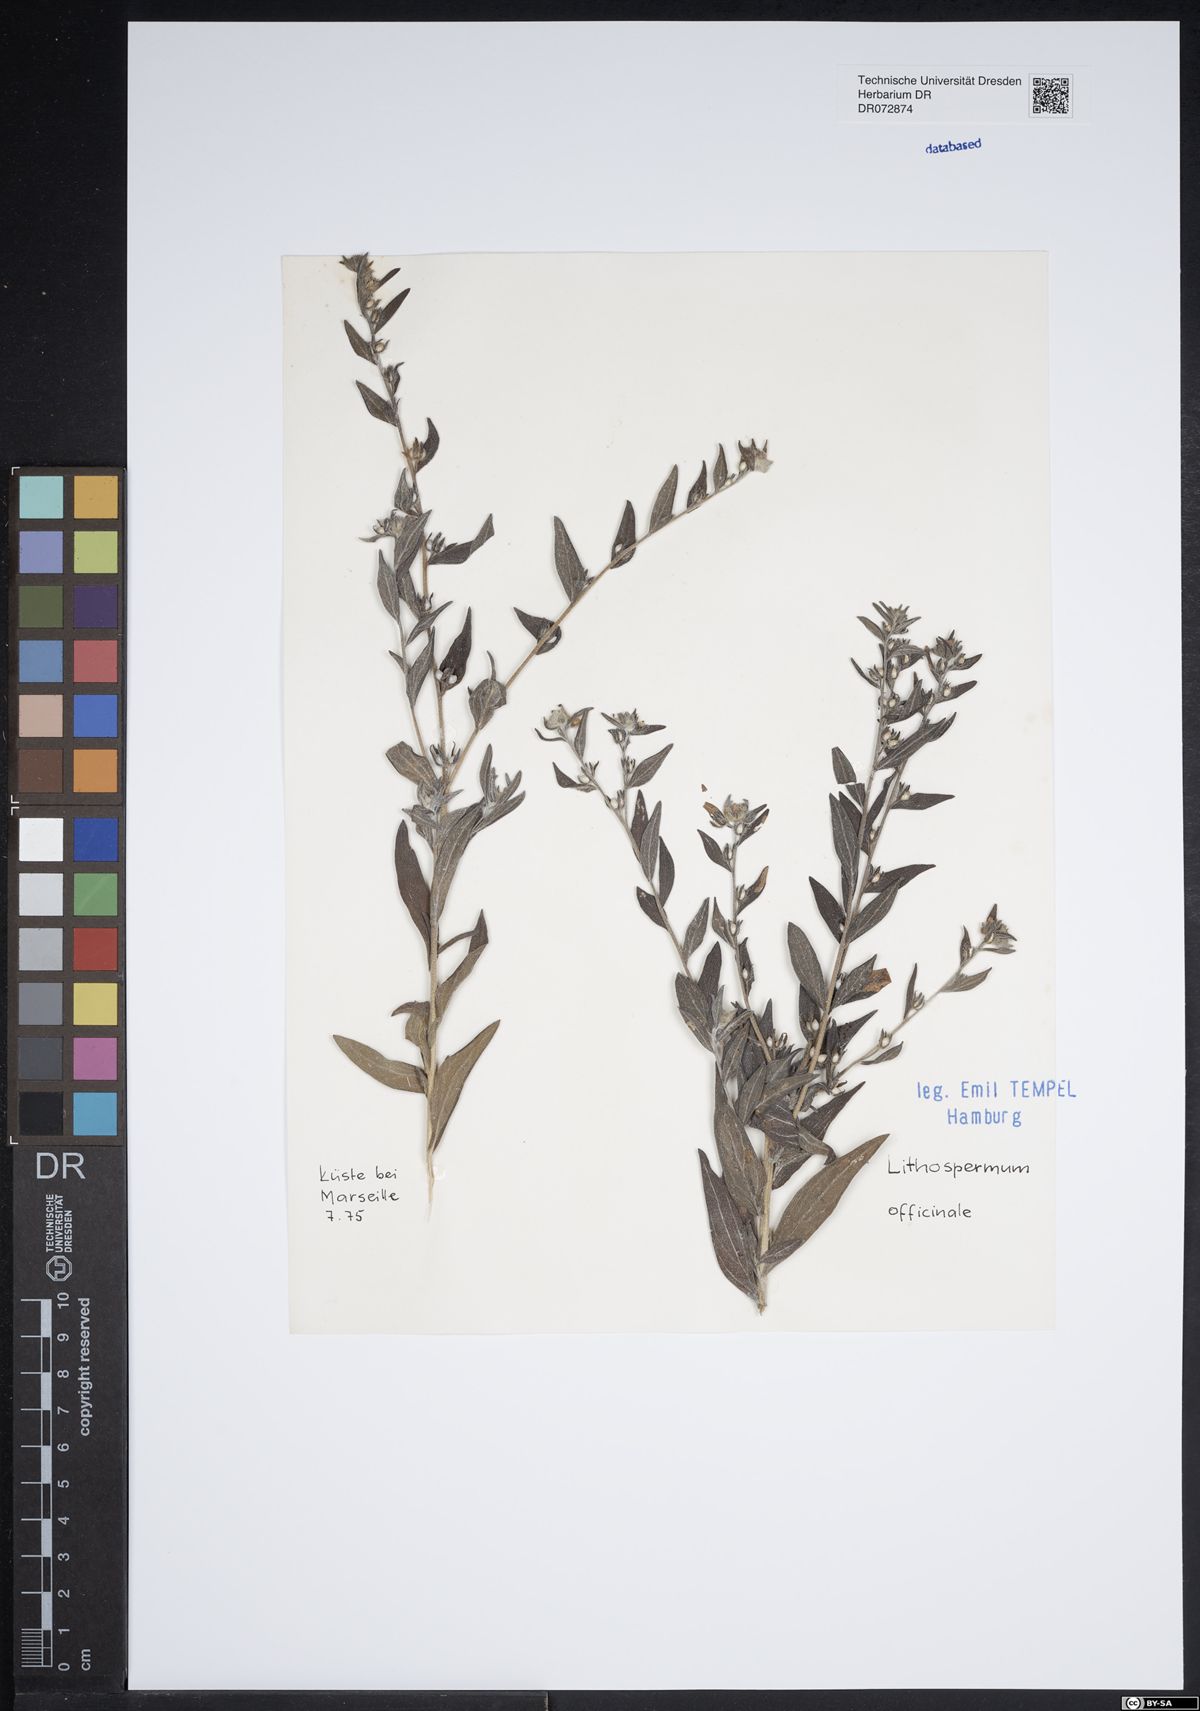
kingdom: Plantae
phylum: Tracheophyta
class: Magnoliopsida
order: Boraginales
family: Boraginaceae
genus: Lithospermum
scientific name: Lithospermum officinale
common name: Common gromwell
